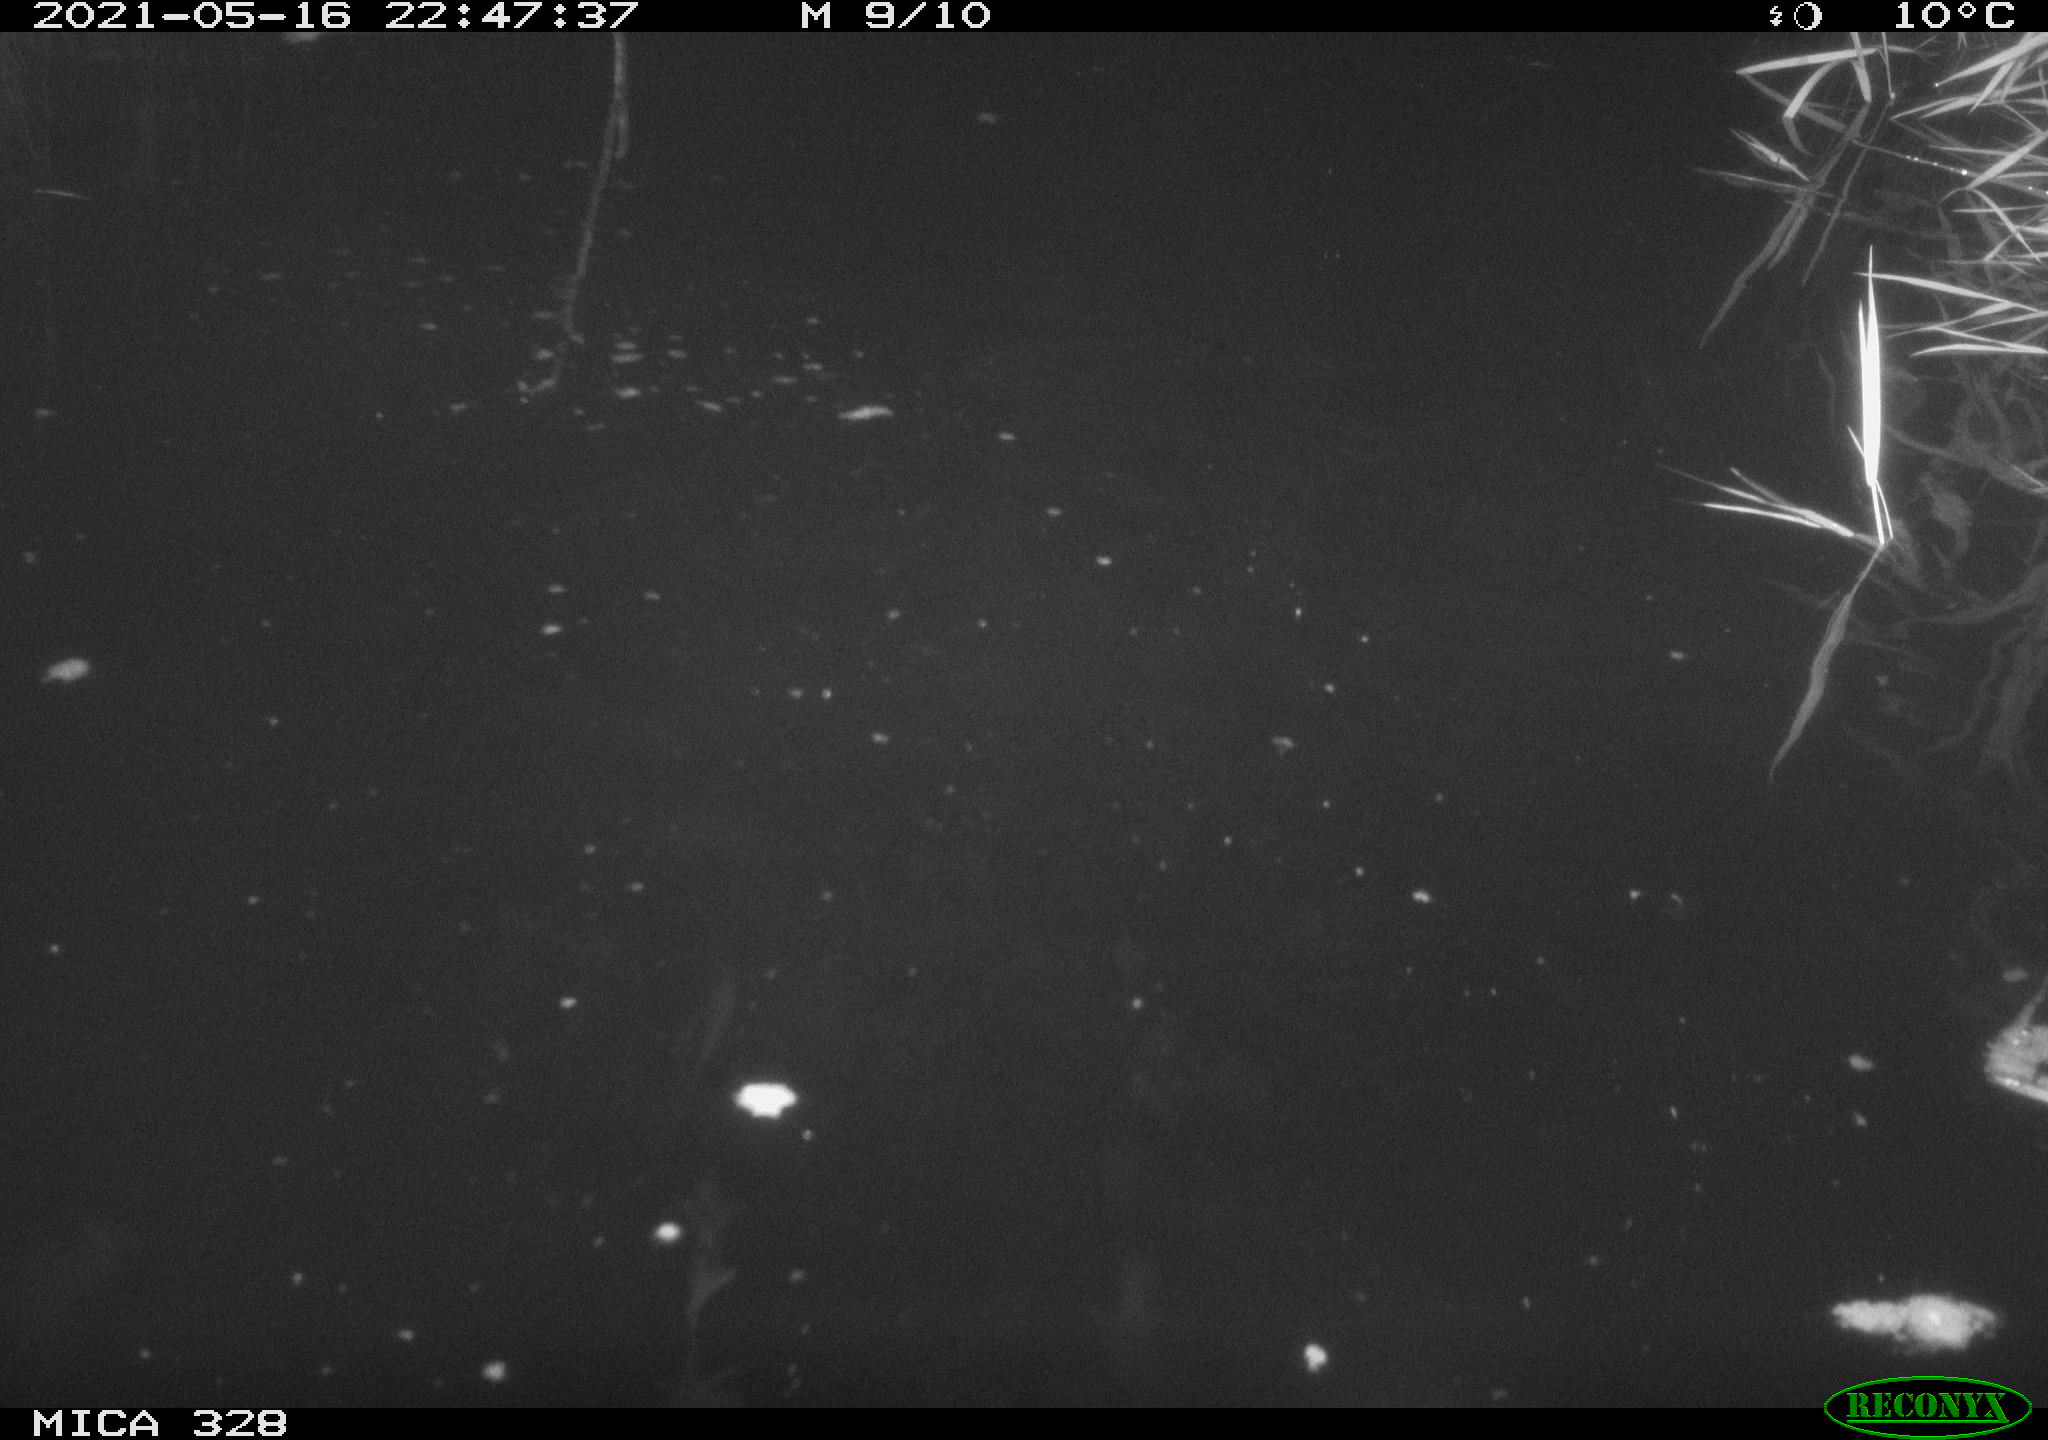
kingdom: Animalia
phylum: Chordata
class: Aves
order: Anseriformes
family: Anatidae
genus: Anas
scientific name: Anas platyrhynchos
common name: Mallard
